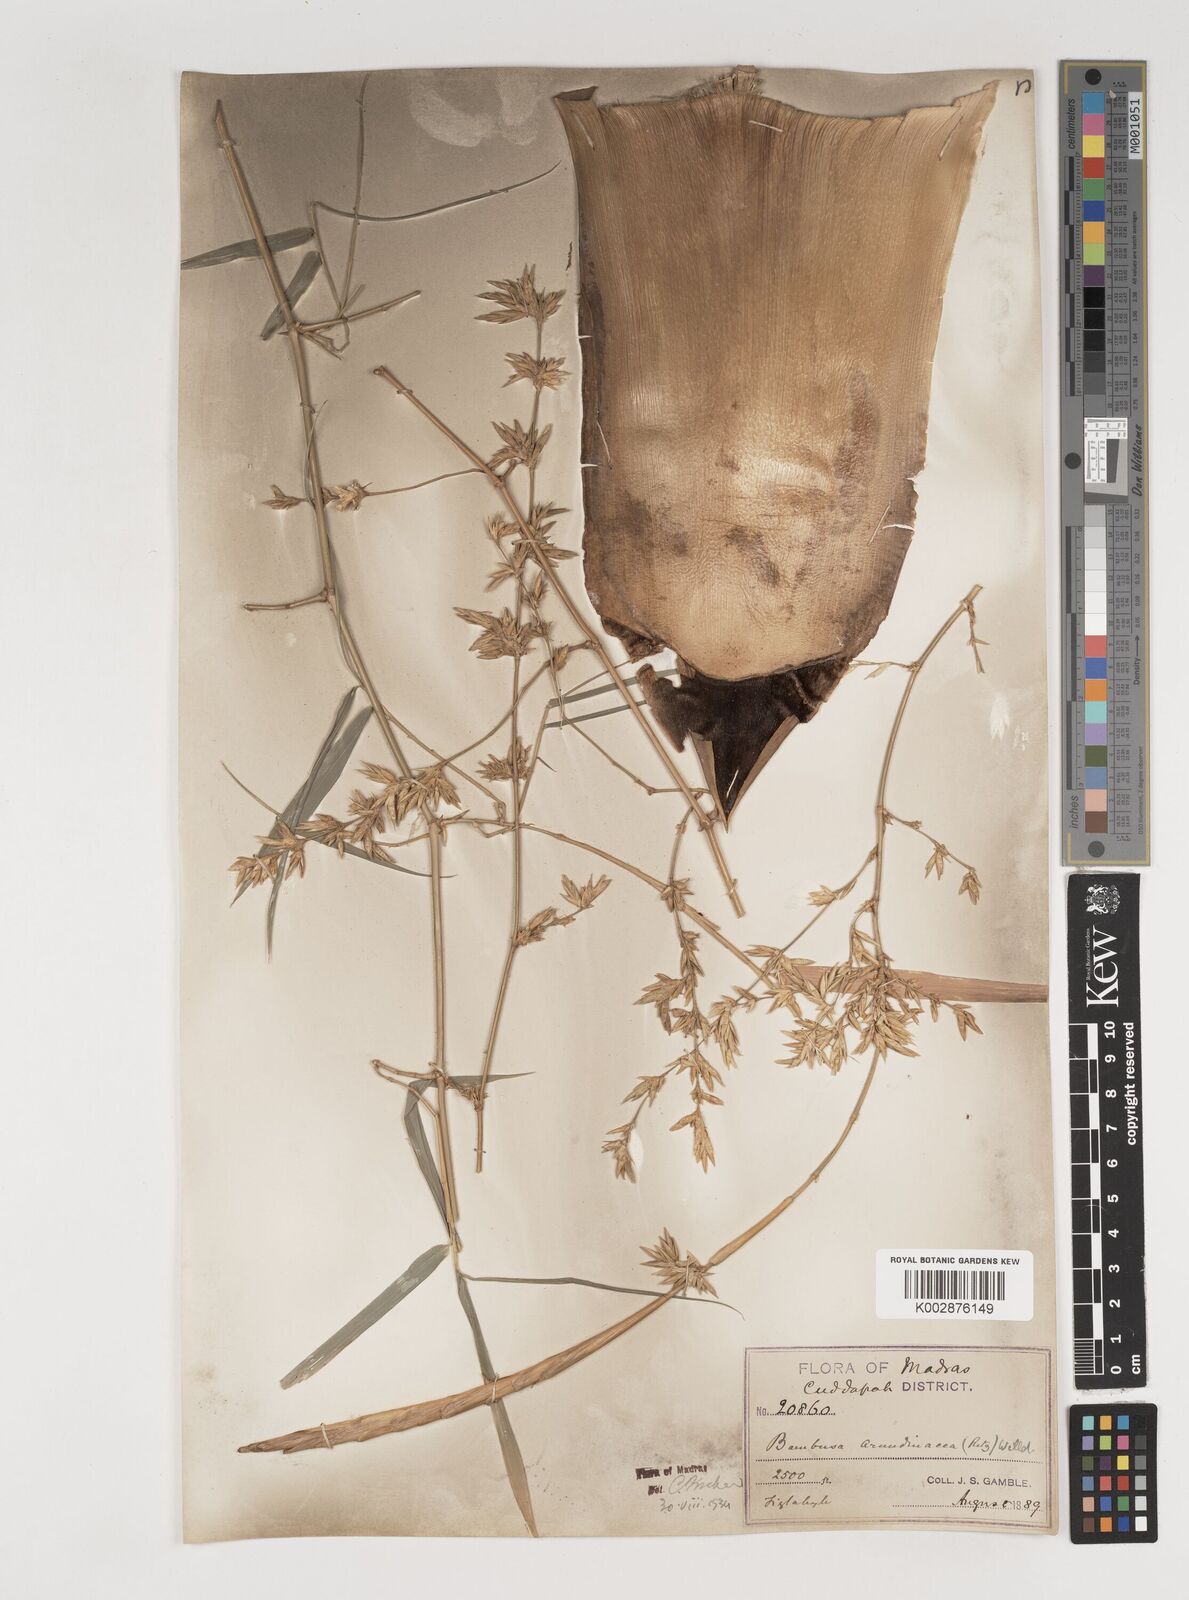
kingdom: Plantae
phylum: Tracheophyta
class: Liliopsida
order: Poales
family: Poaceae
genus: Bambusa
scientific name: Bambusa bambos
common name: Indian thorny bamboo
